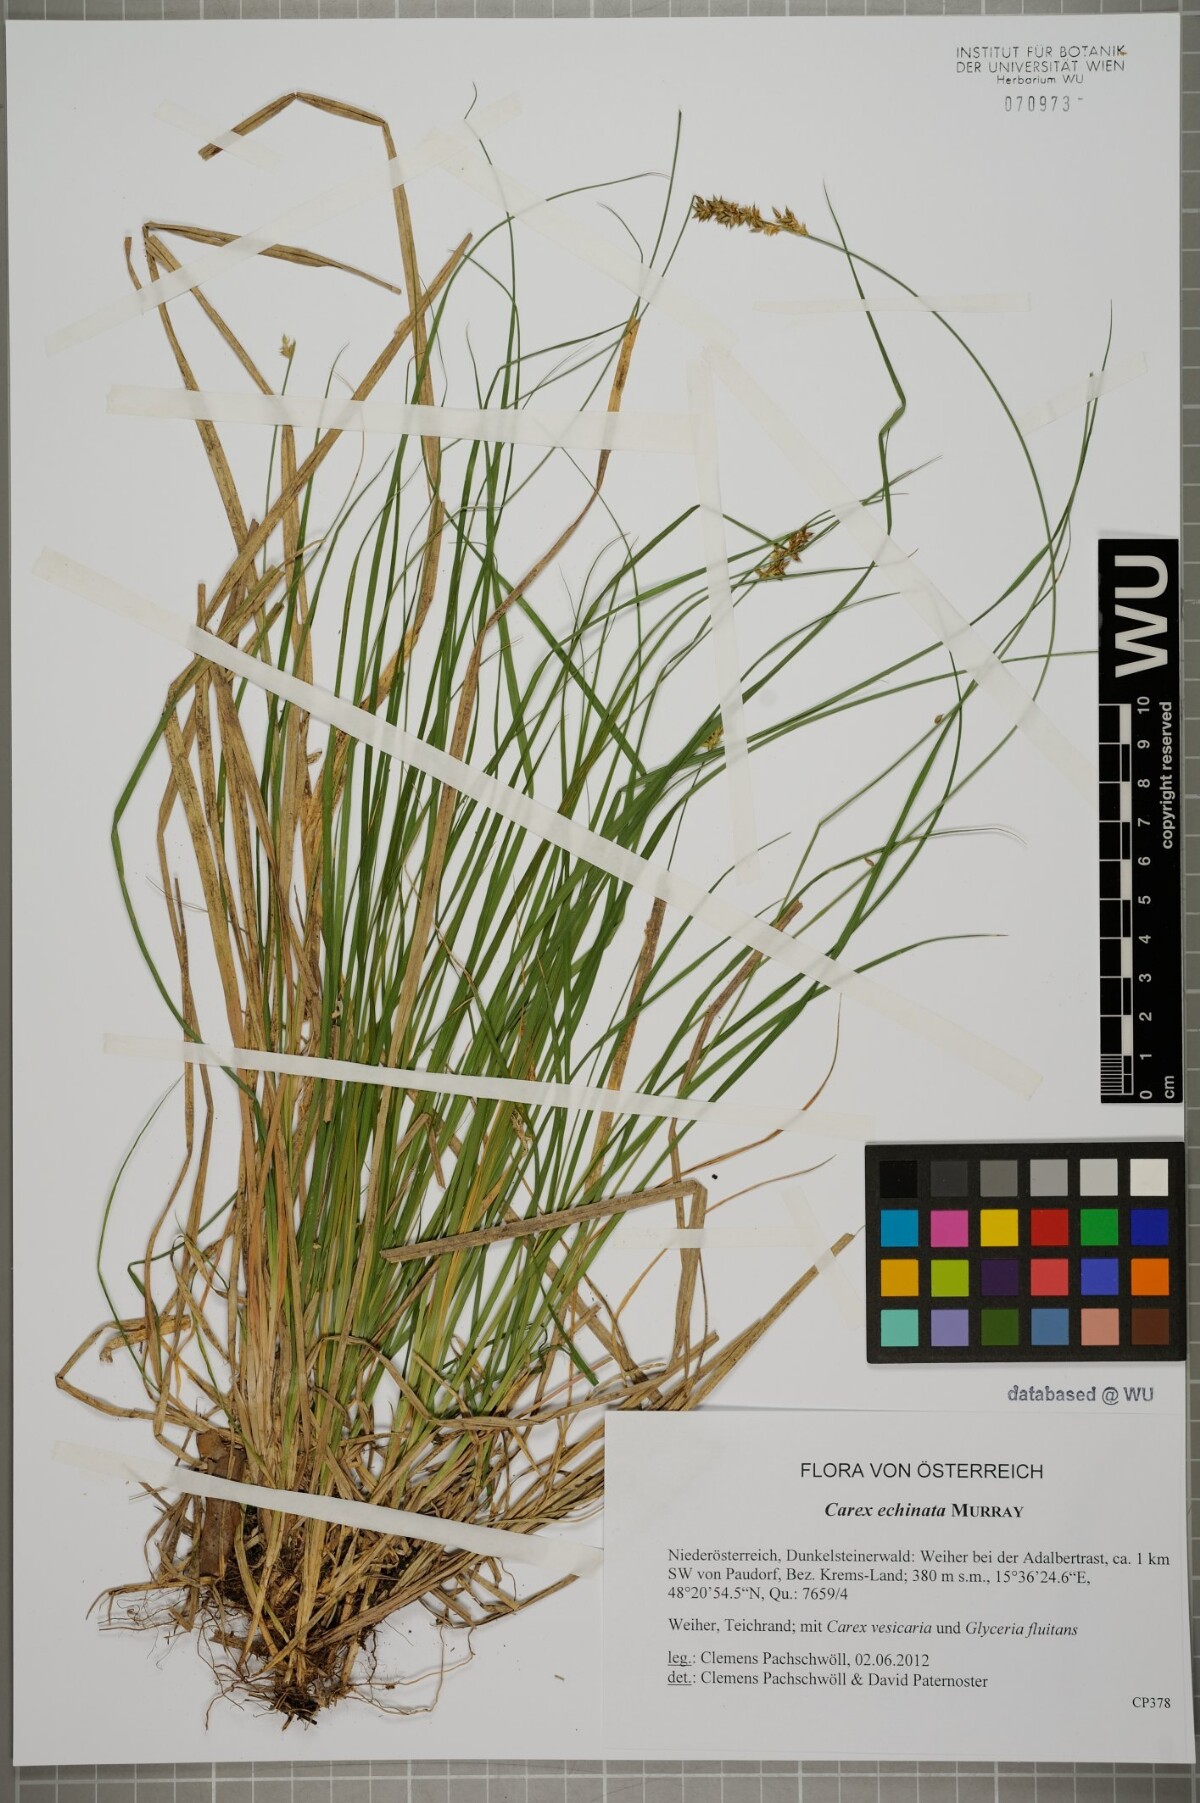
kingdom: Plantae
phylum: Tracheophyta
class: Liliopsida
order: Poales
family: Cyperaceae
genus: Carex
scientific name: Carex echinata
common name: Star sedge
